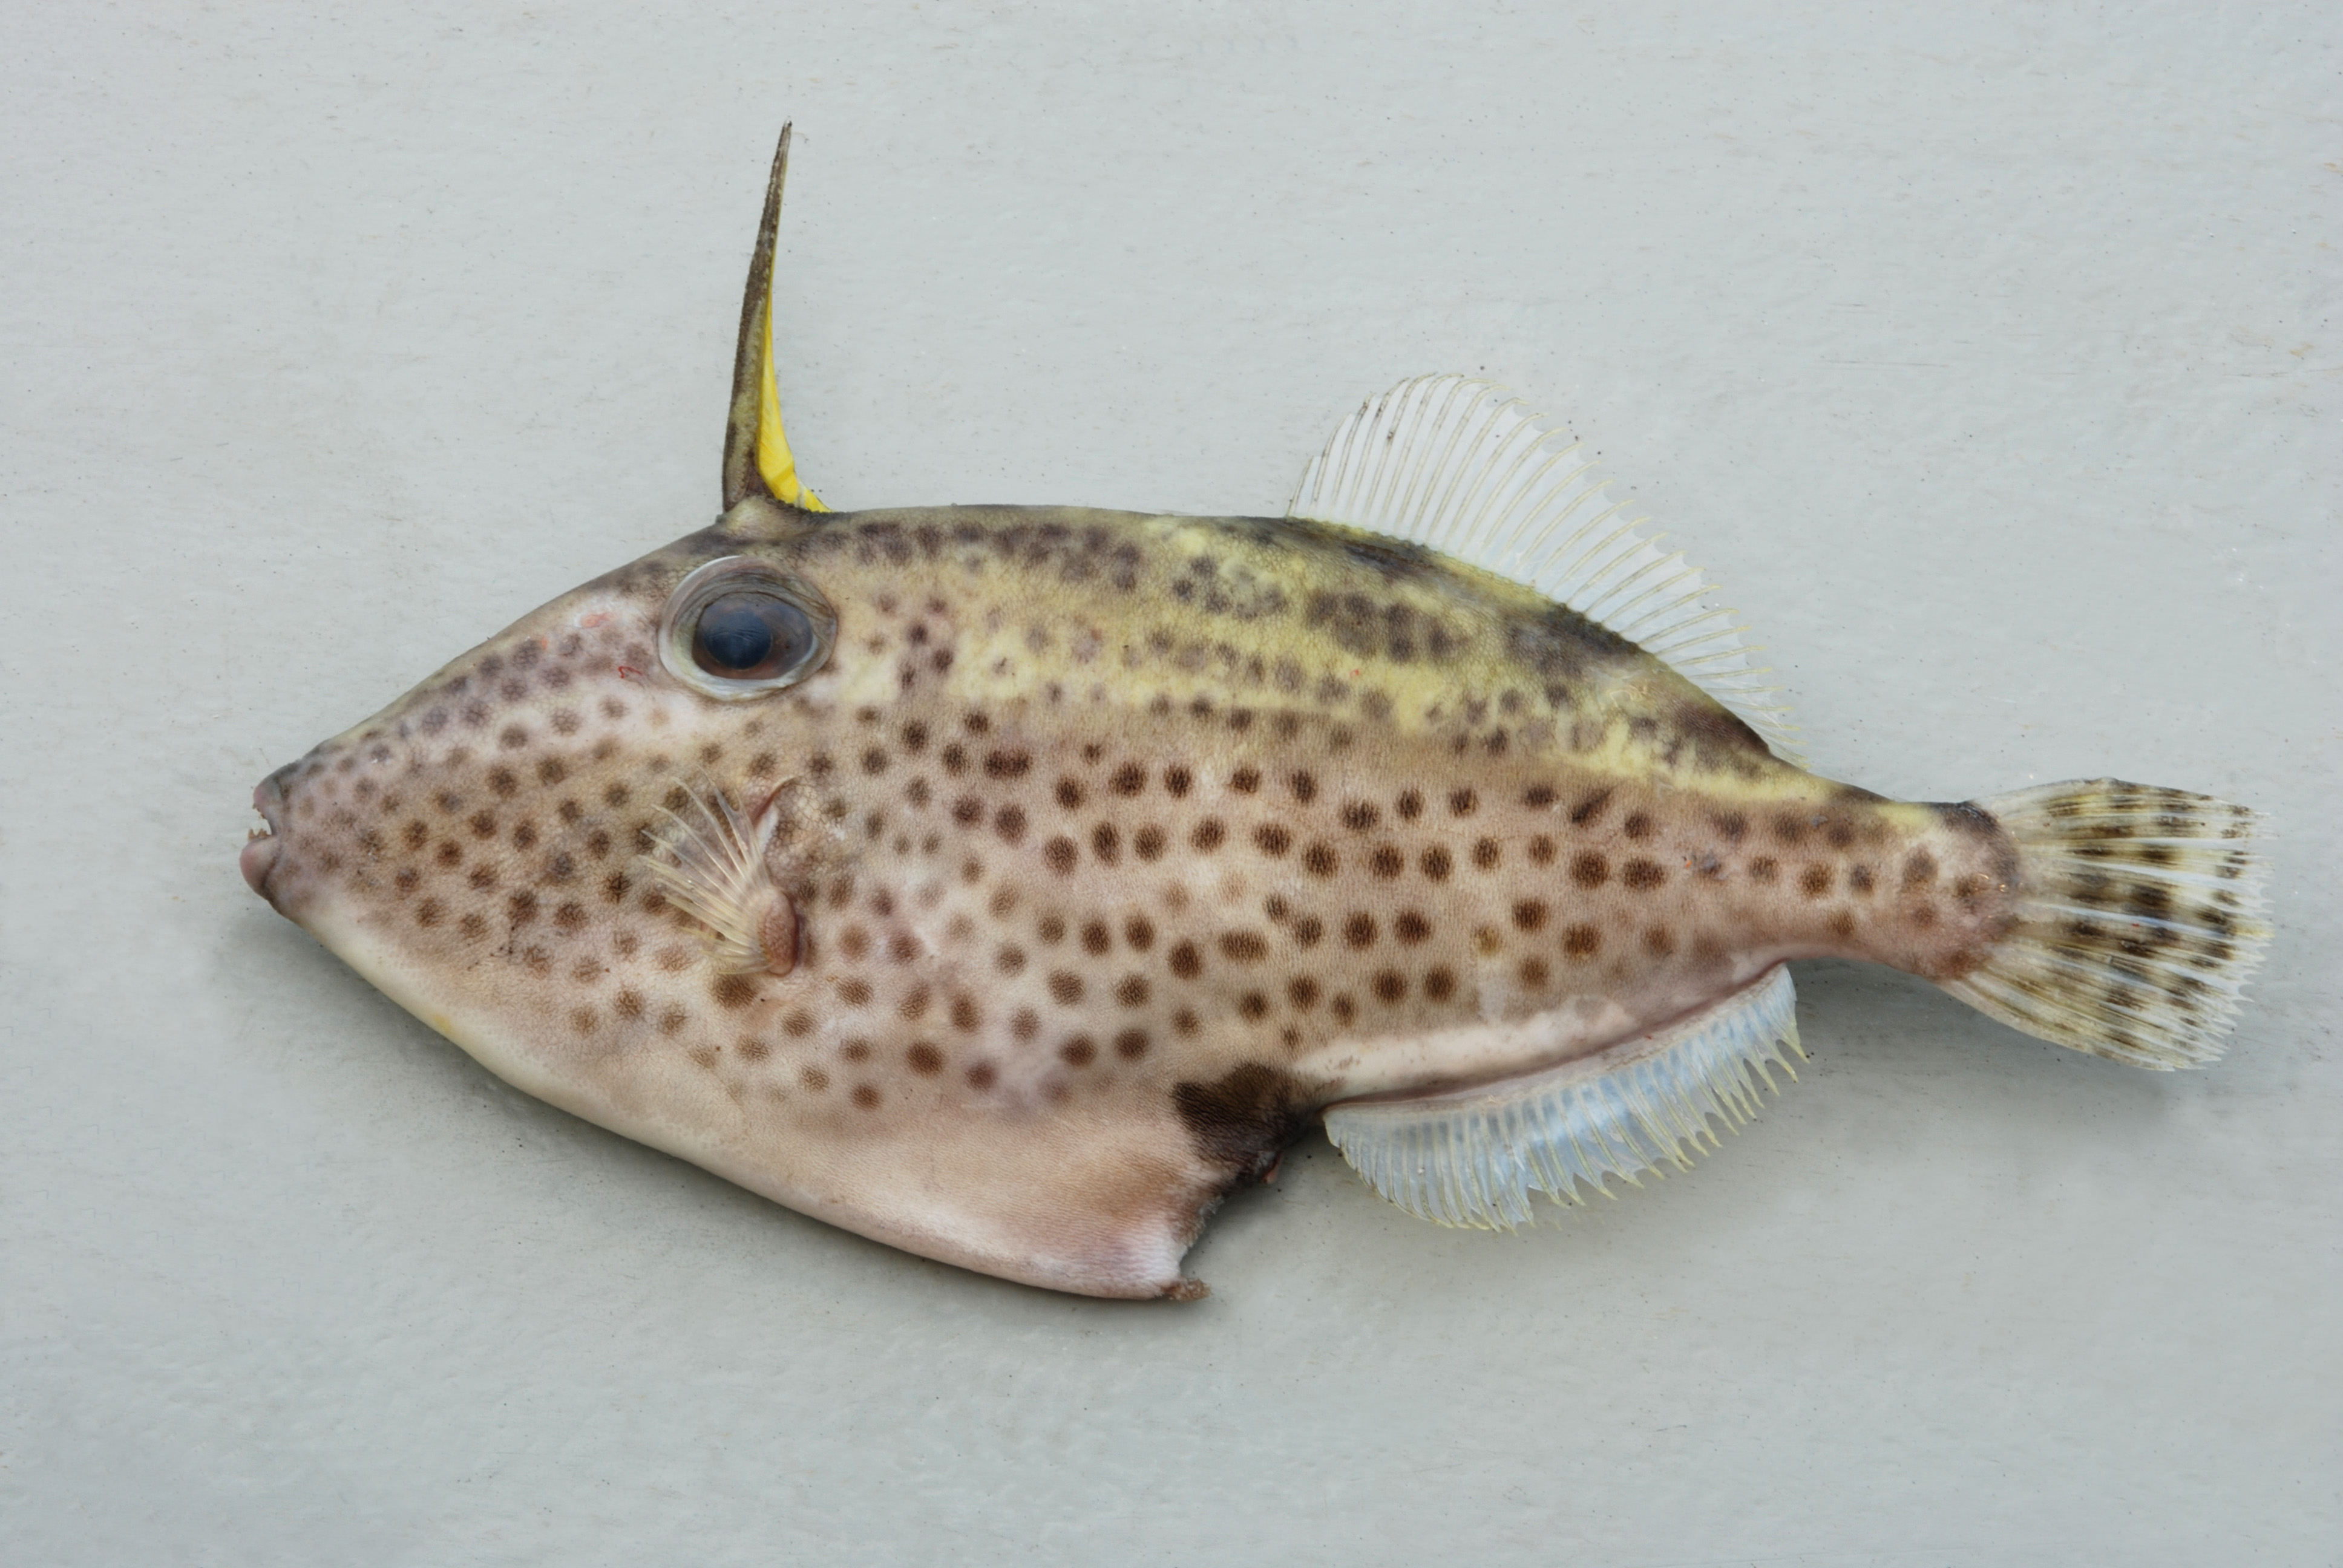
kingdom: Animalia
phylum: Chordata
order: Tetraodontiformes
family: Monacanthidae
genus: Thamnaconus
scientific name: Thamnaconus fajardoi
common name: Spotted filefish
